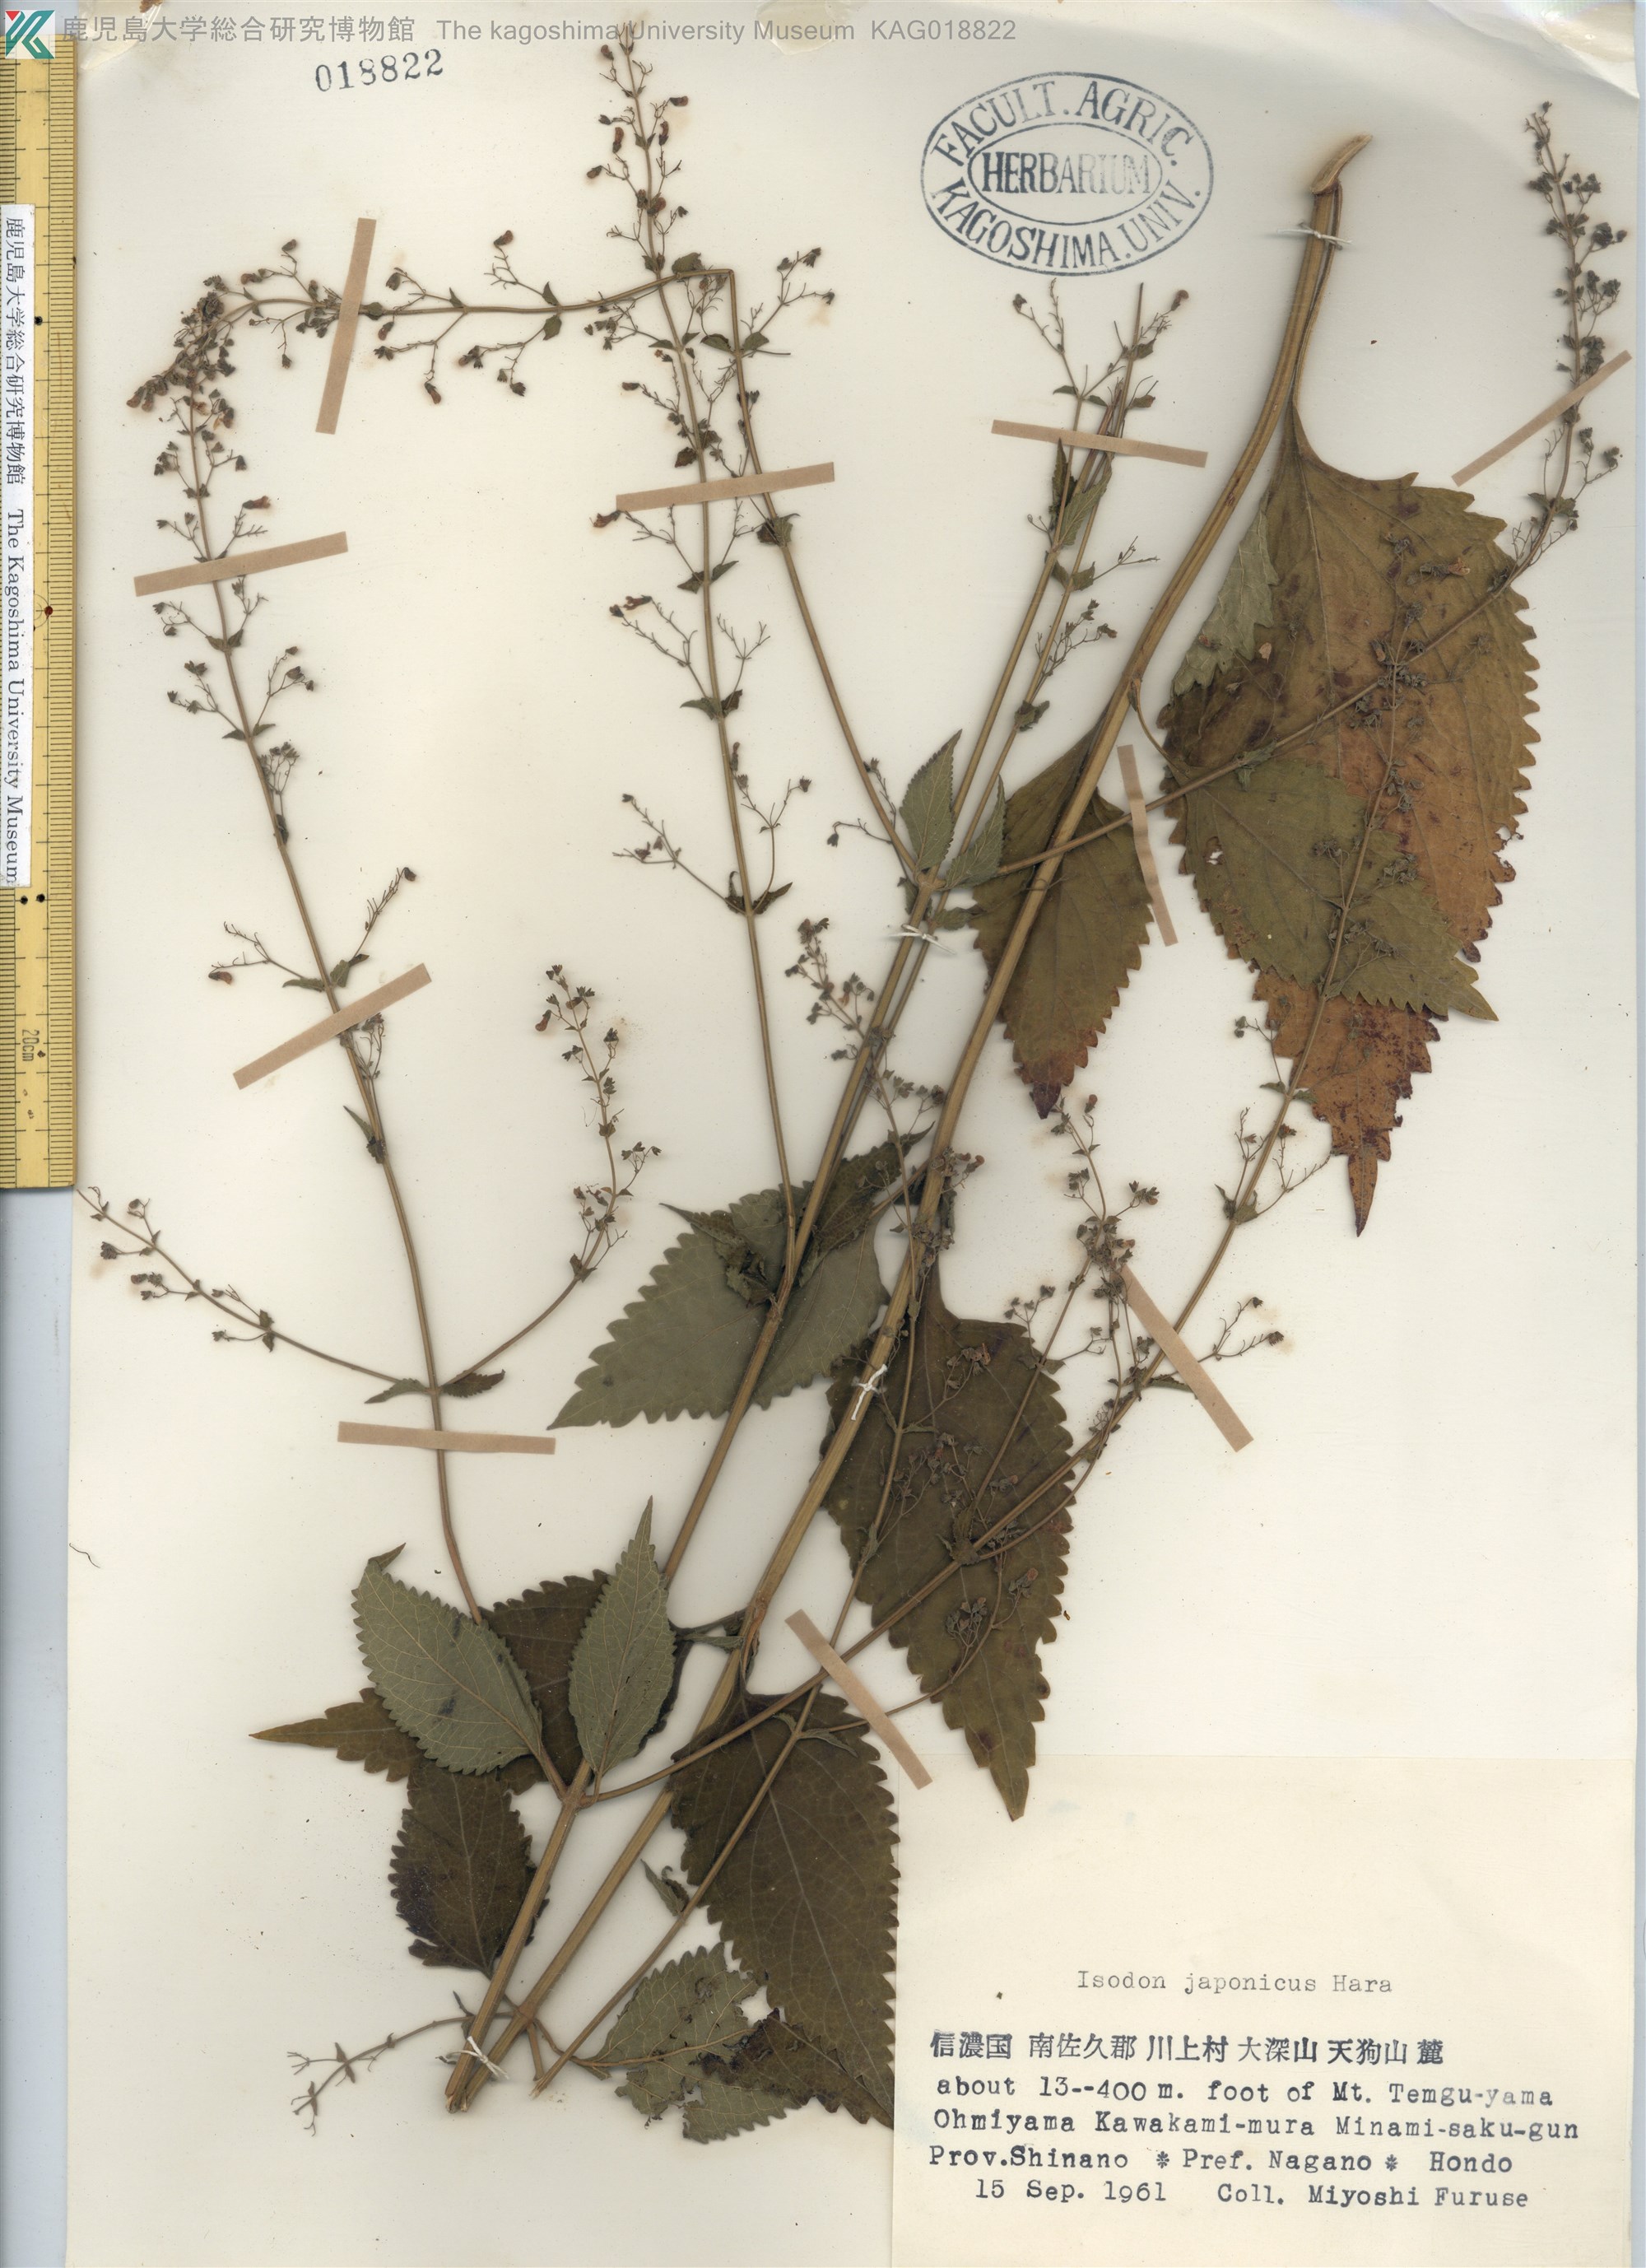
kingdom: Plantae
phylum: Tracheophyta
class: Magnoliopsida
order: Lamiales
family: Lamiaceae
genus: Isodon
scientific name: Isodon japonicus
